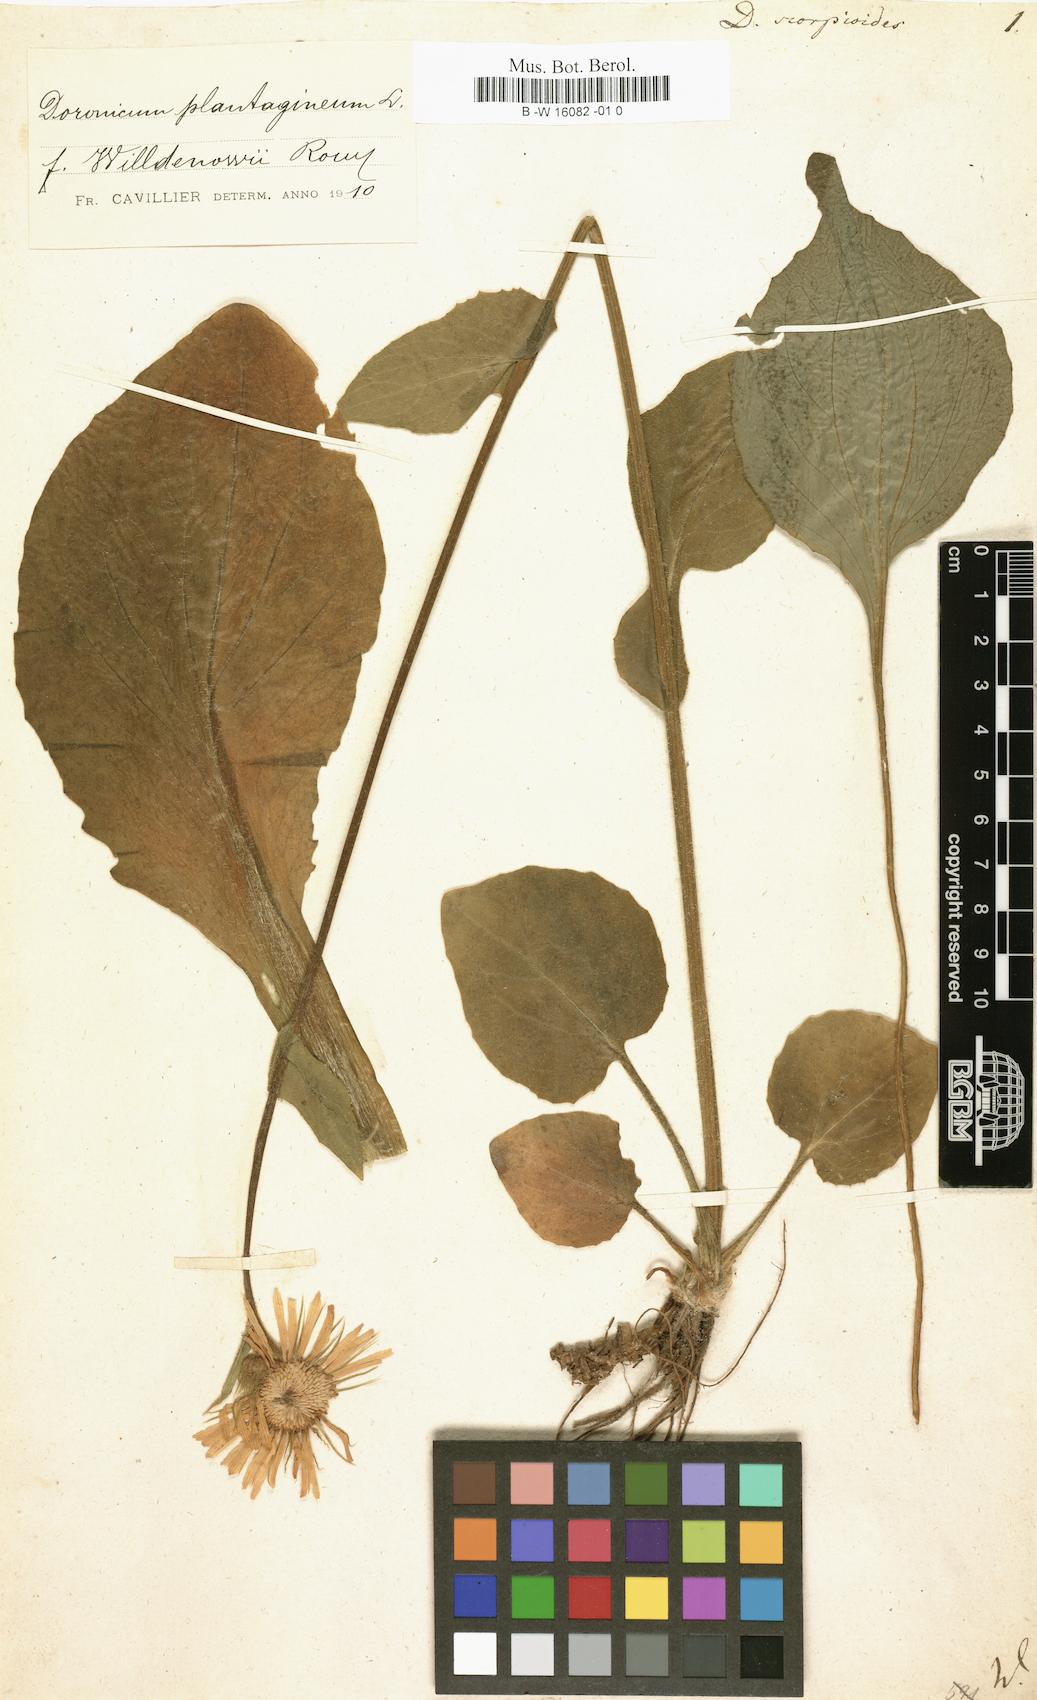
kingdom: Plantae
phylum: Tracheophyta
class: Magnoliopsida
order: Asterales
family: Asteraceae
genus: Doronicum
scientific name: Doronicum grandiflorum
